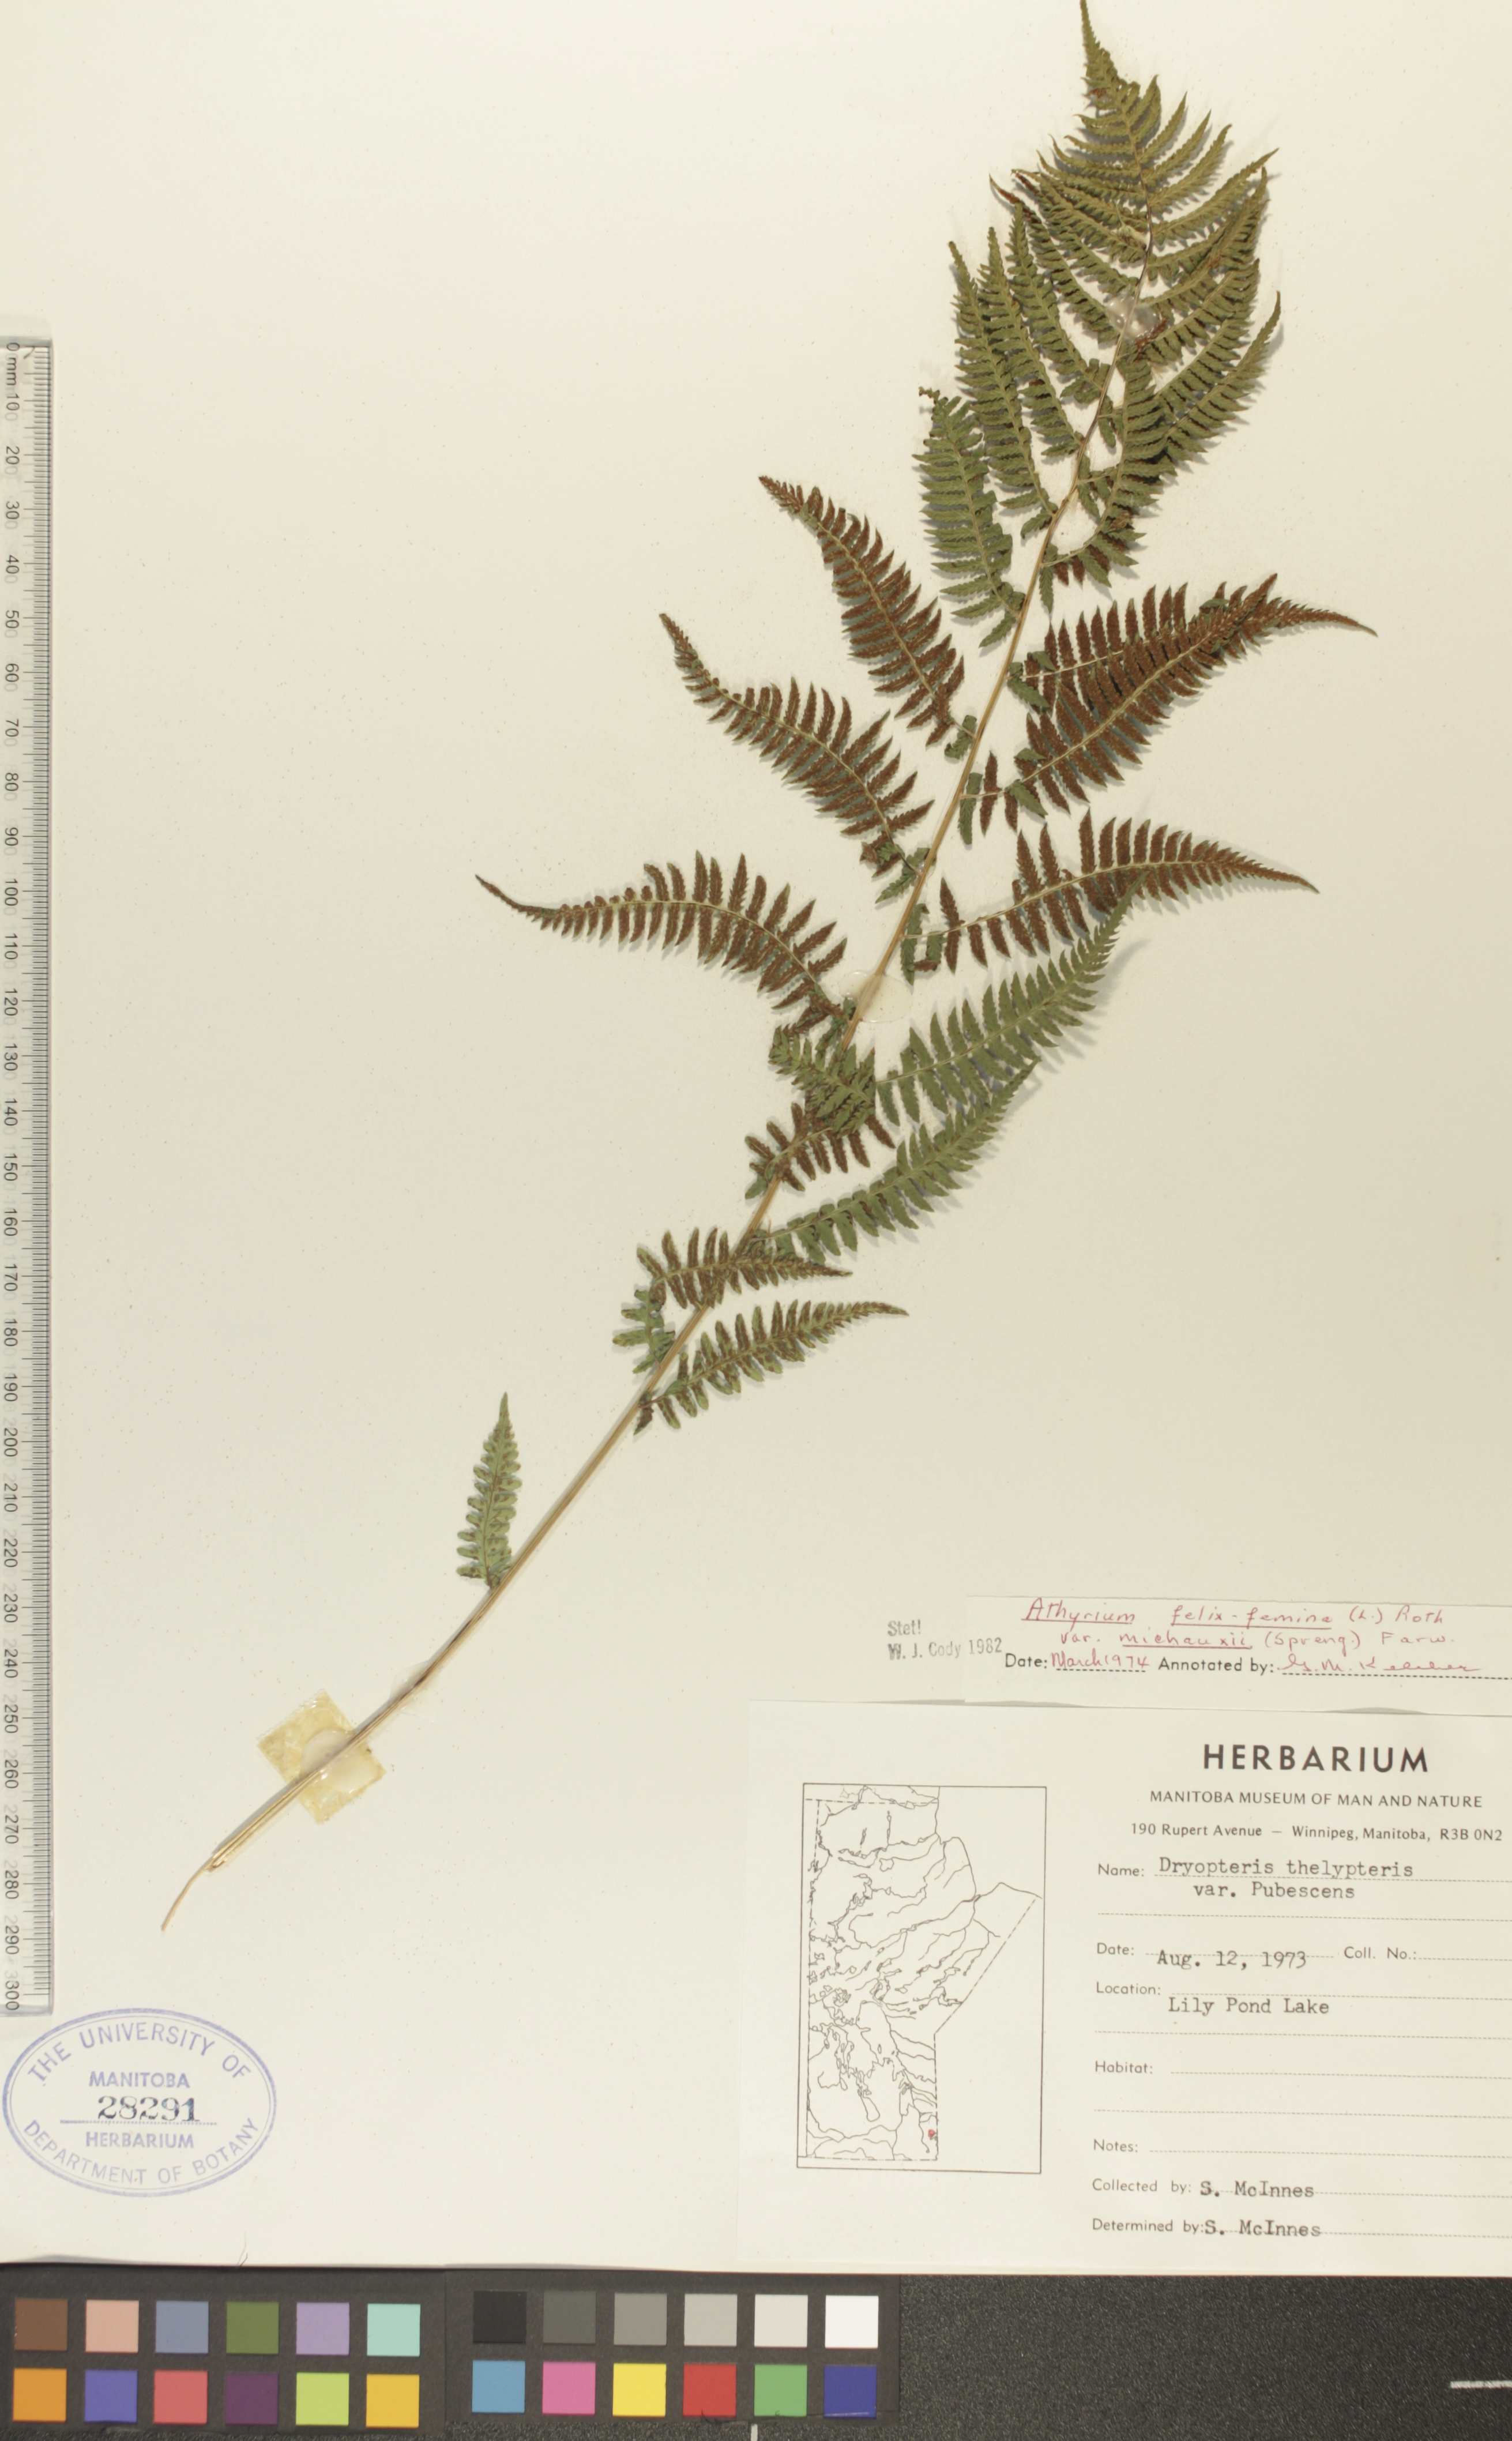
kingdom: Plantae
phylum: Tracheophyta
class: Polypodiopsida
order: Polypodiales
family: Athyriaceae
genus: Athyrium
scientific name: Athyrium angustum
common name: Northern lady fern
